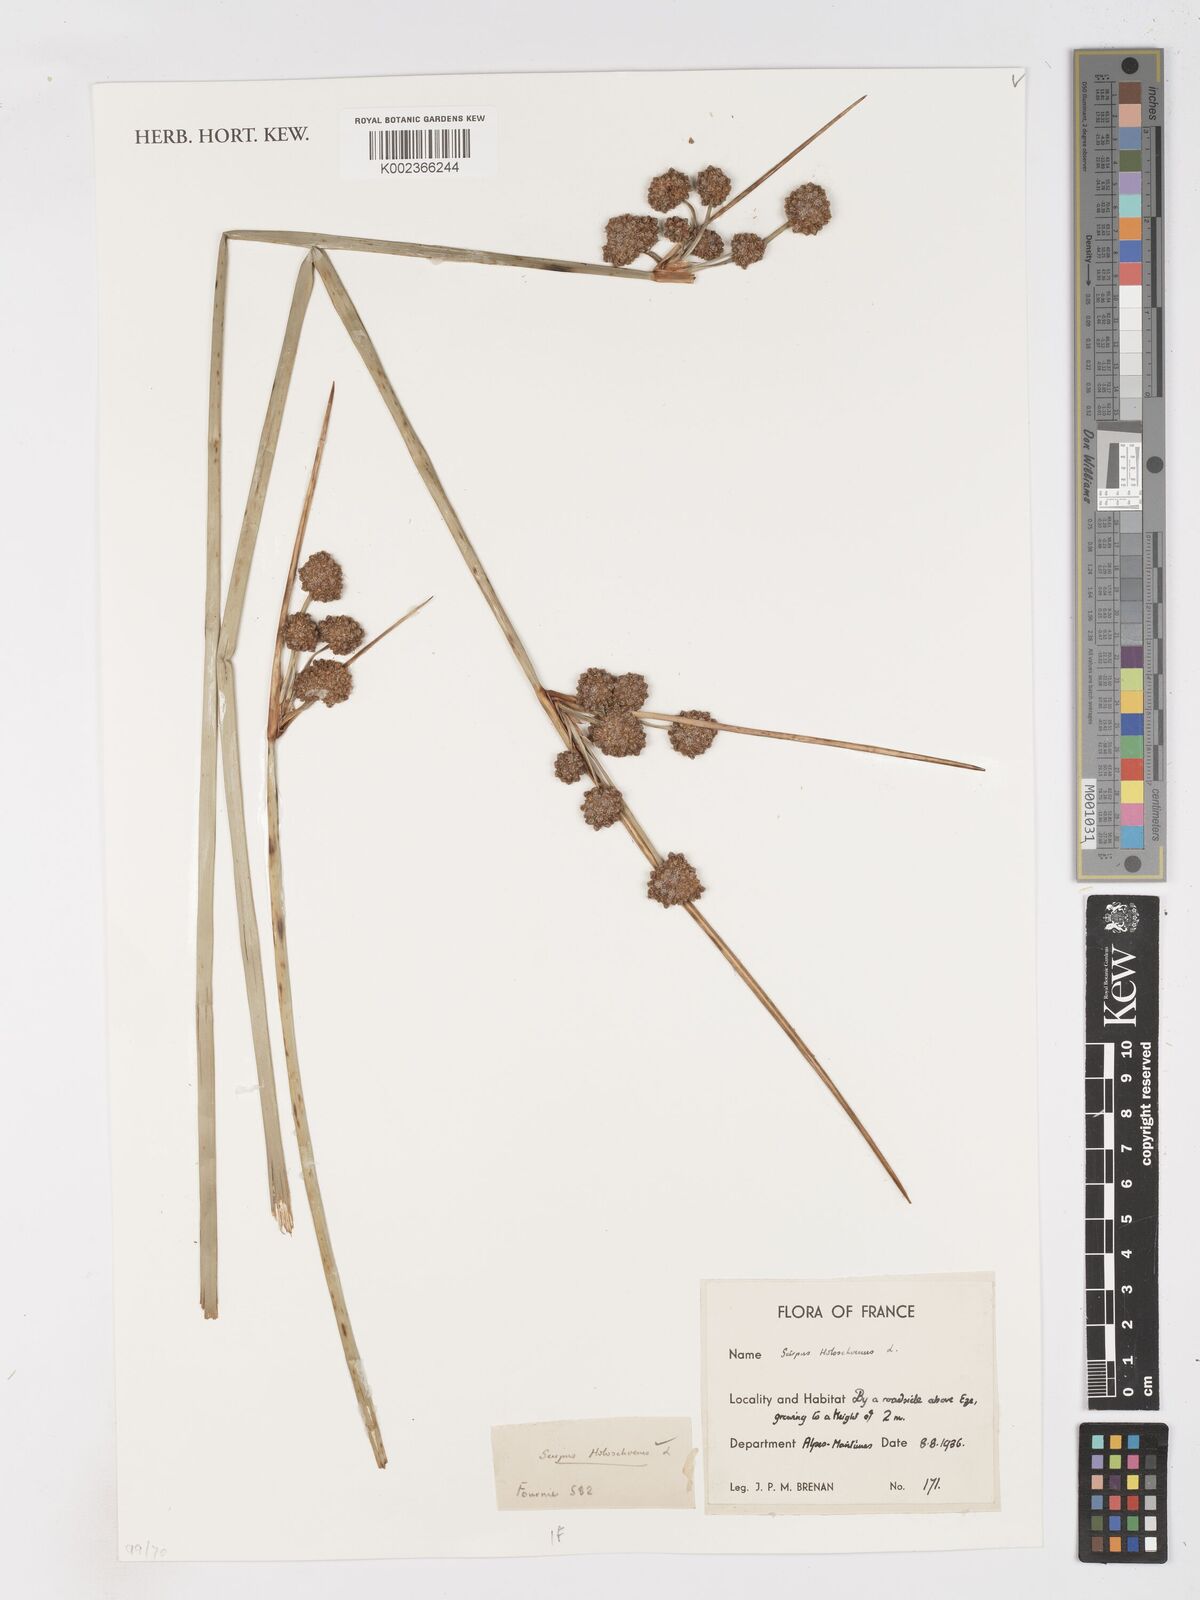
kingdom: Plantae
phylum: Tracheophyta
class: Liliopsida
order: Poales
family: Cyperaceae
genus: Scirpoides
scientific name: Scirpoides holoschoenus
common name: Round-headed club-rush
